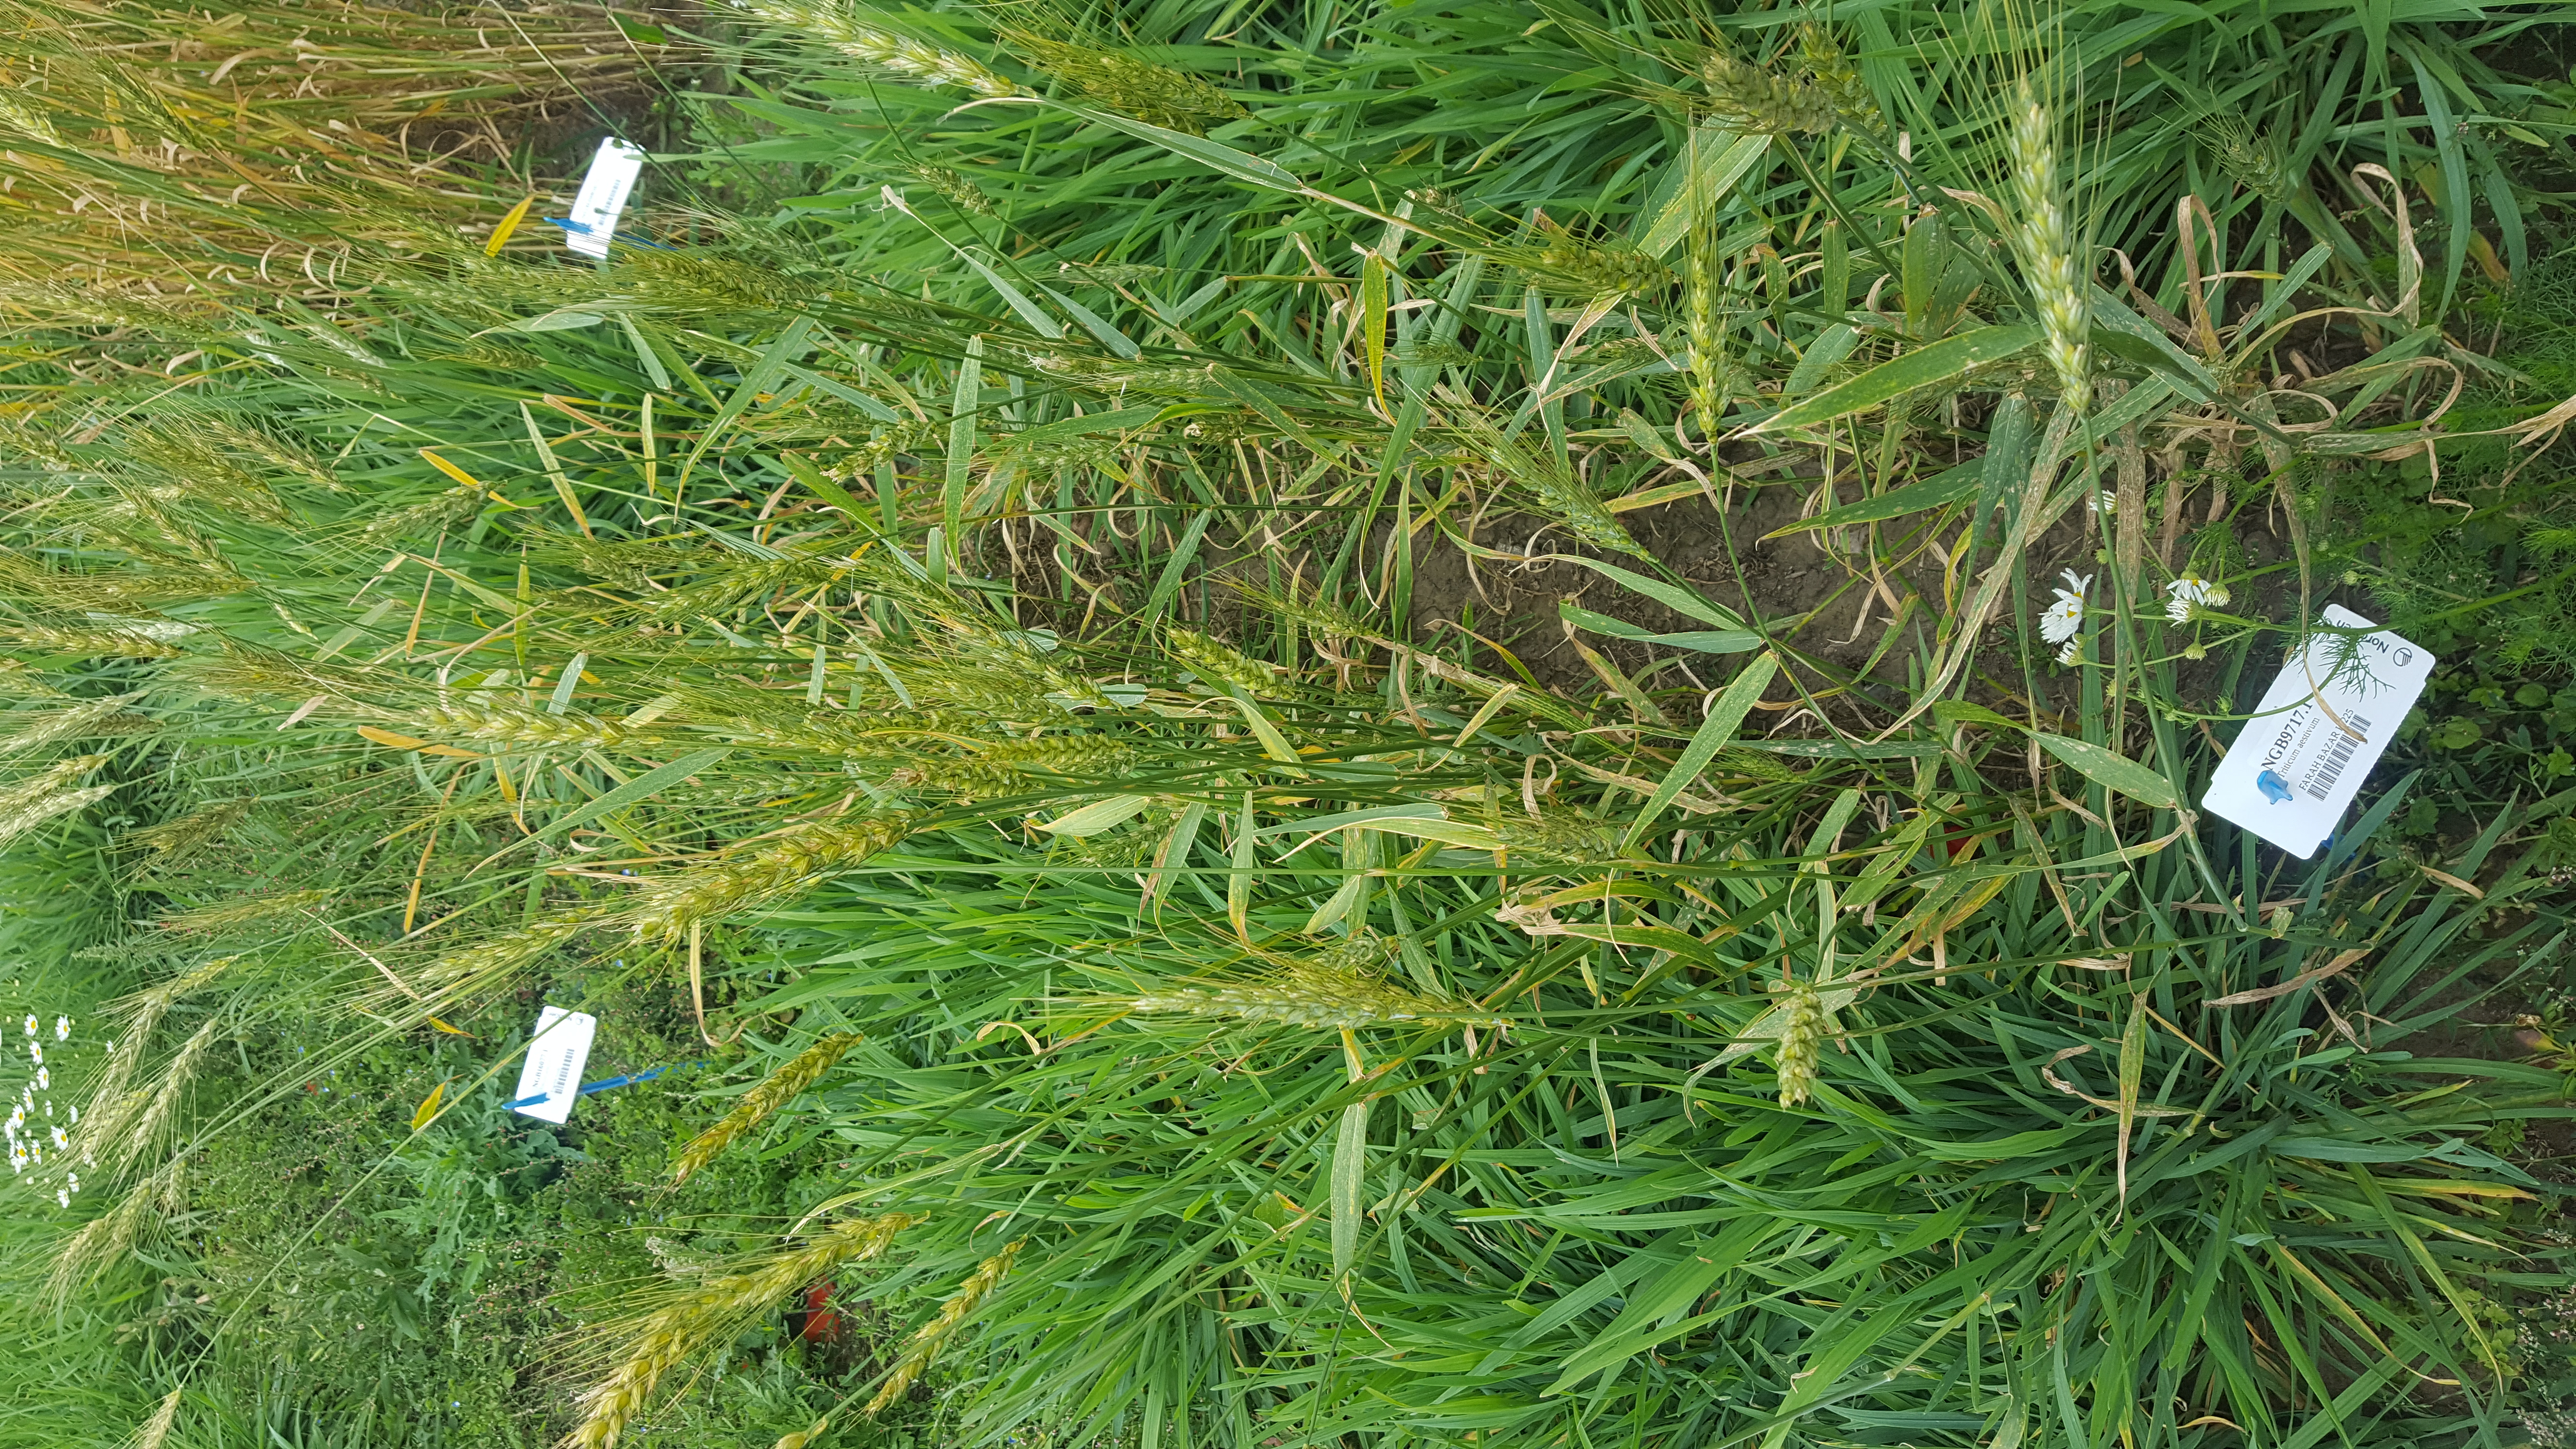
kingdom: Plantae
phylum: Tracheophyta
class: Liliopsida
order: Poales
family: Poaceae
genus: Triticum
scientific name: Triticum aestivum
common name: Common wheat
